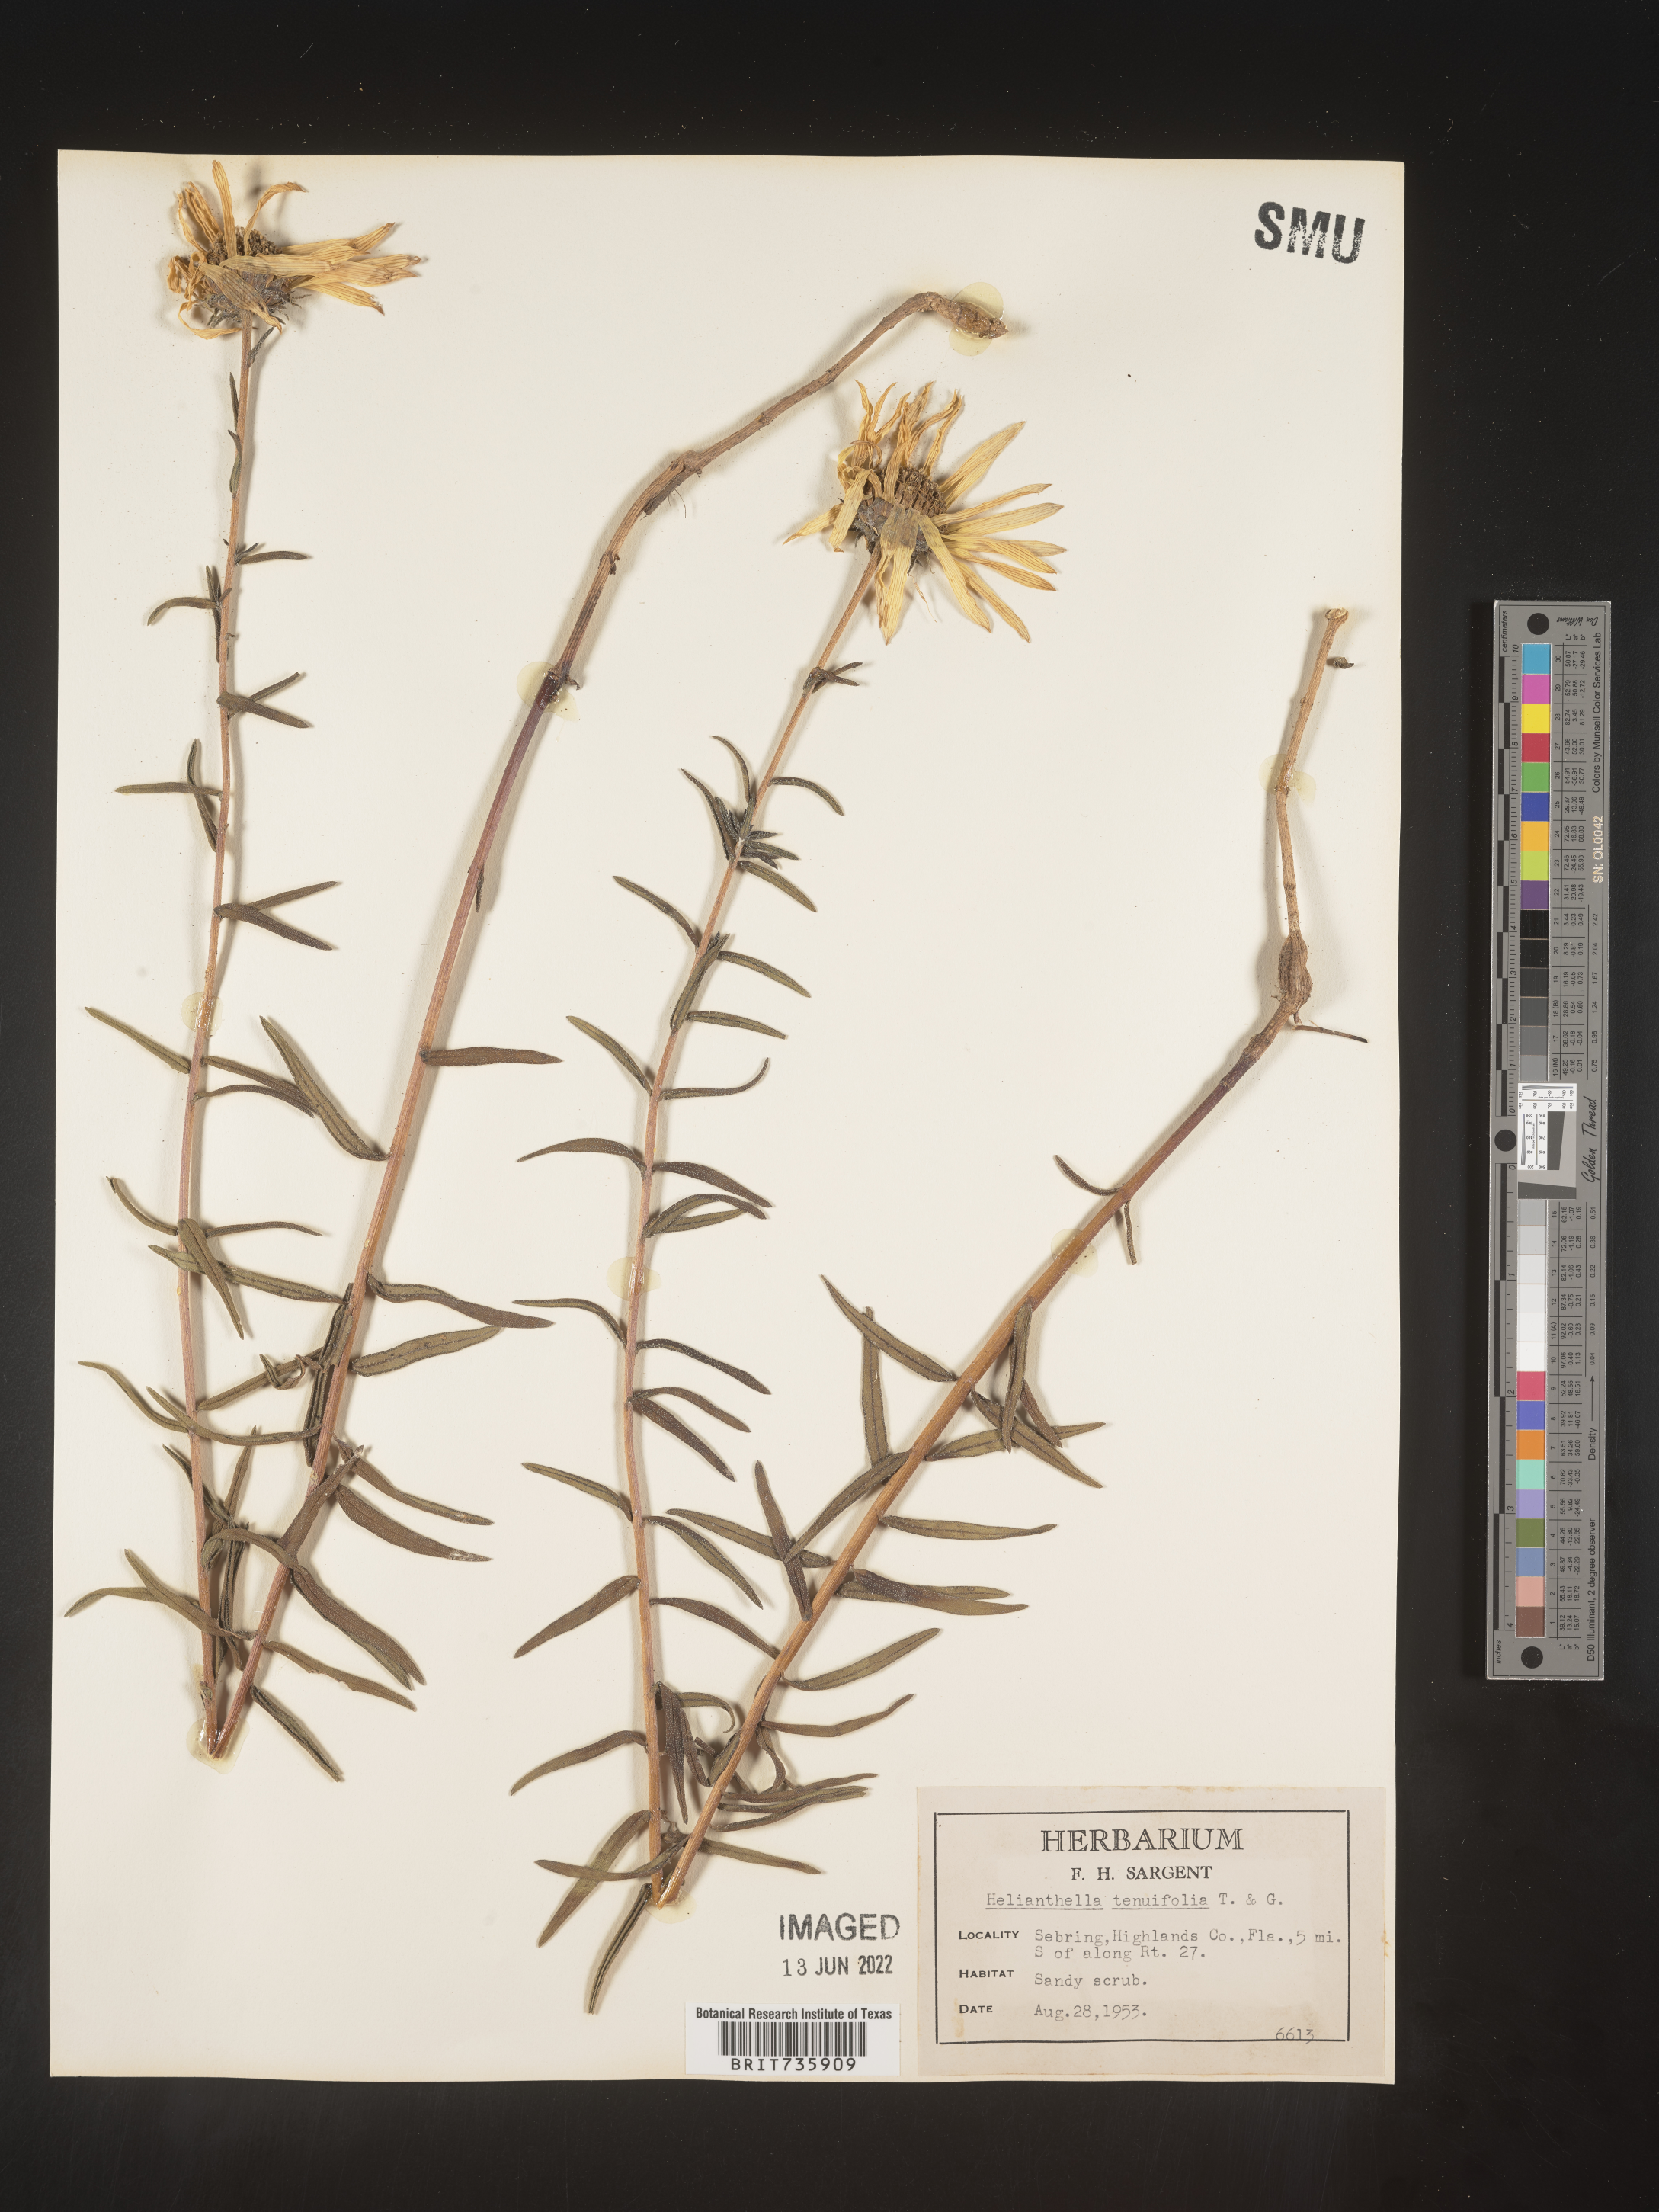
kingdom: Plantae
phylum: Tracheophyta
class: Magnoliopsida
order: Asterales
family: Asteraceae
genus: Phoebanthus
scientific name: Phoebanthus tenuifolia
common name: Pineland false sunflower
